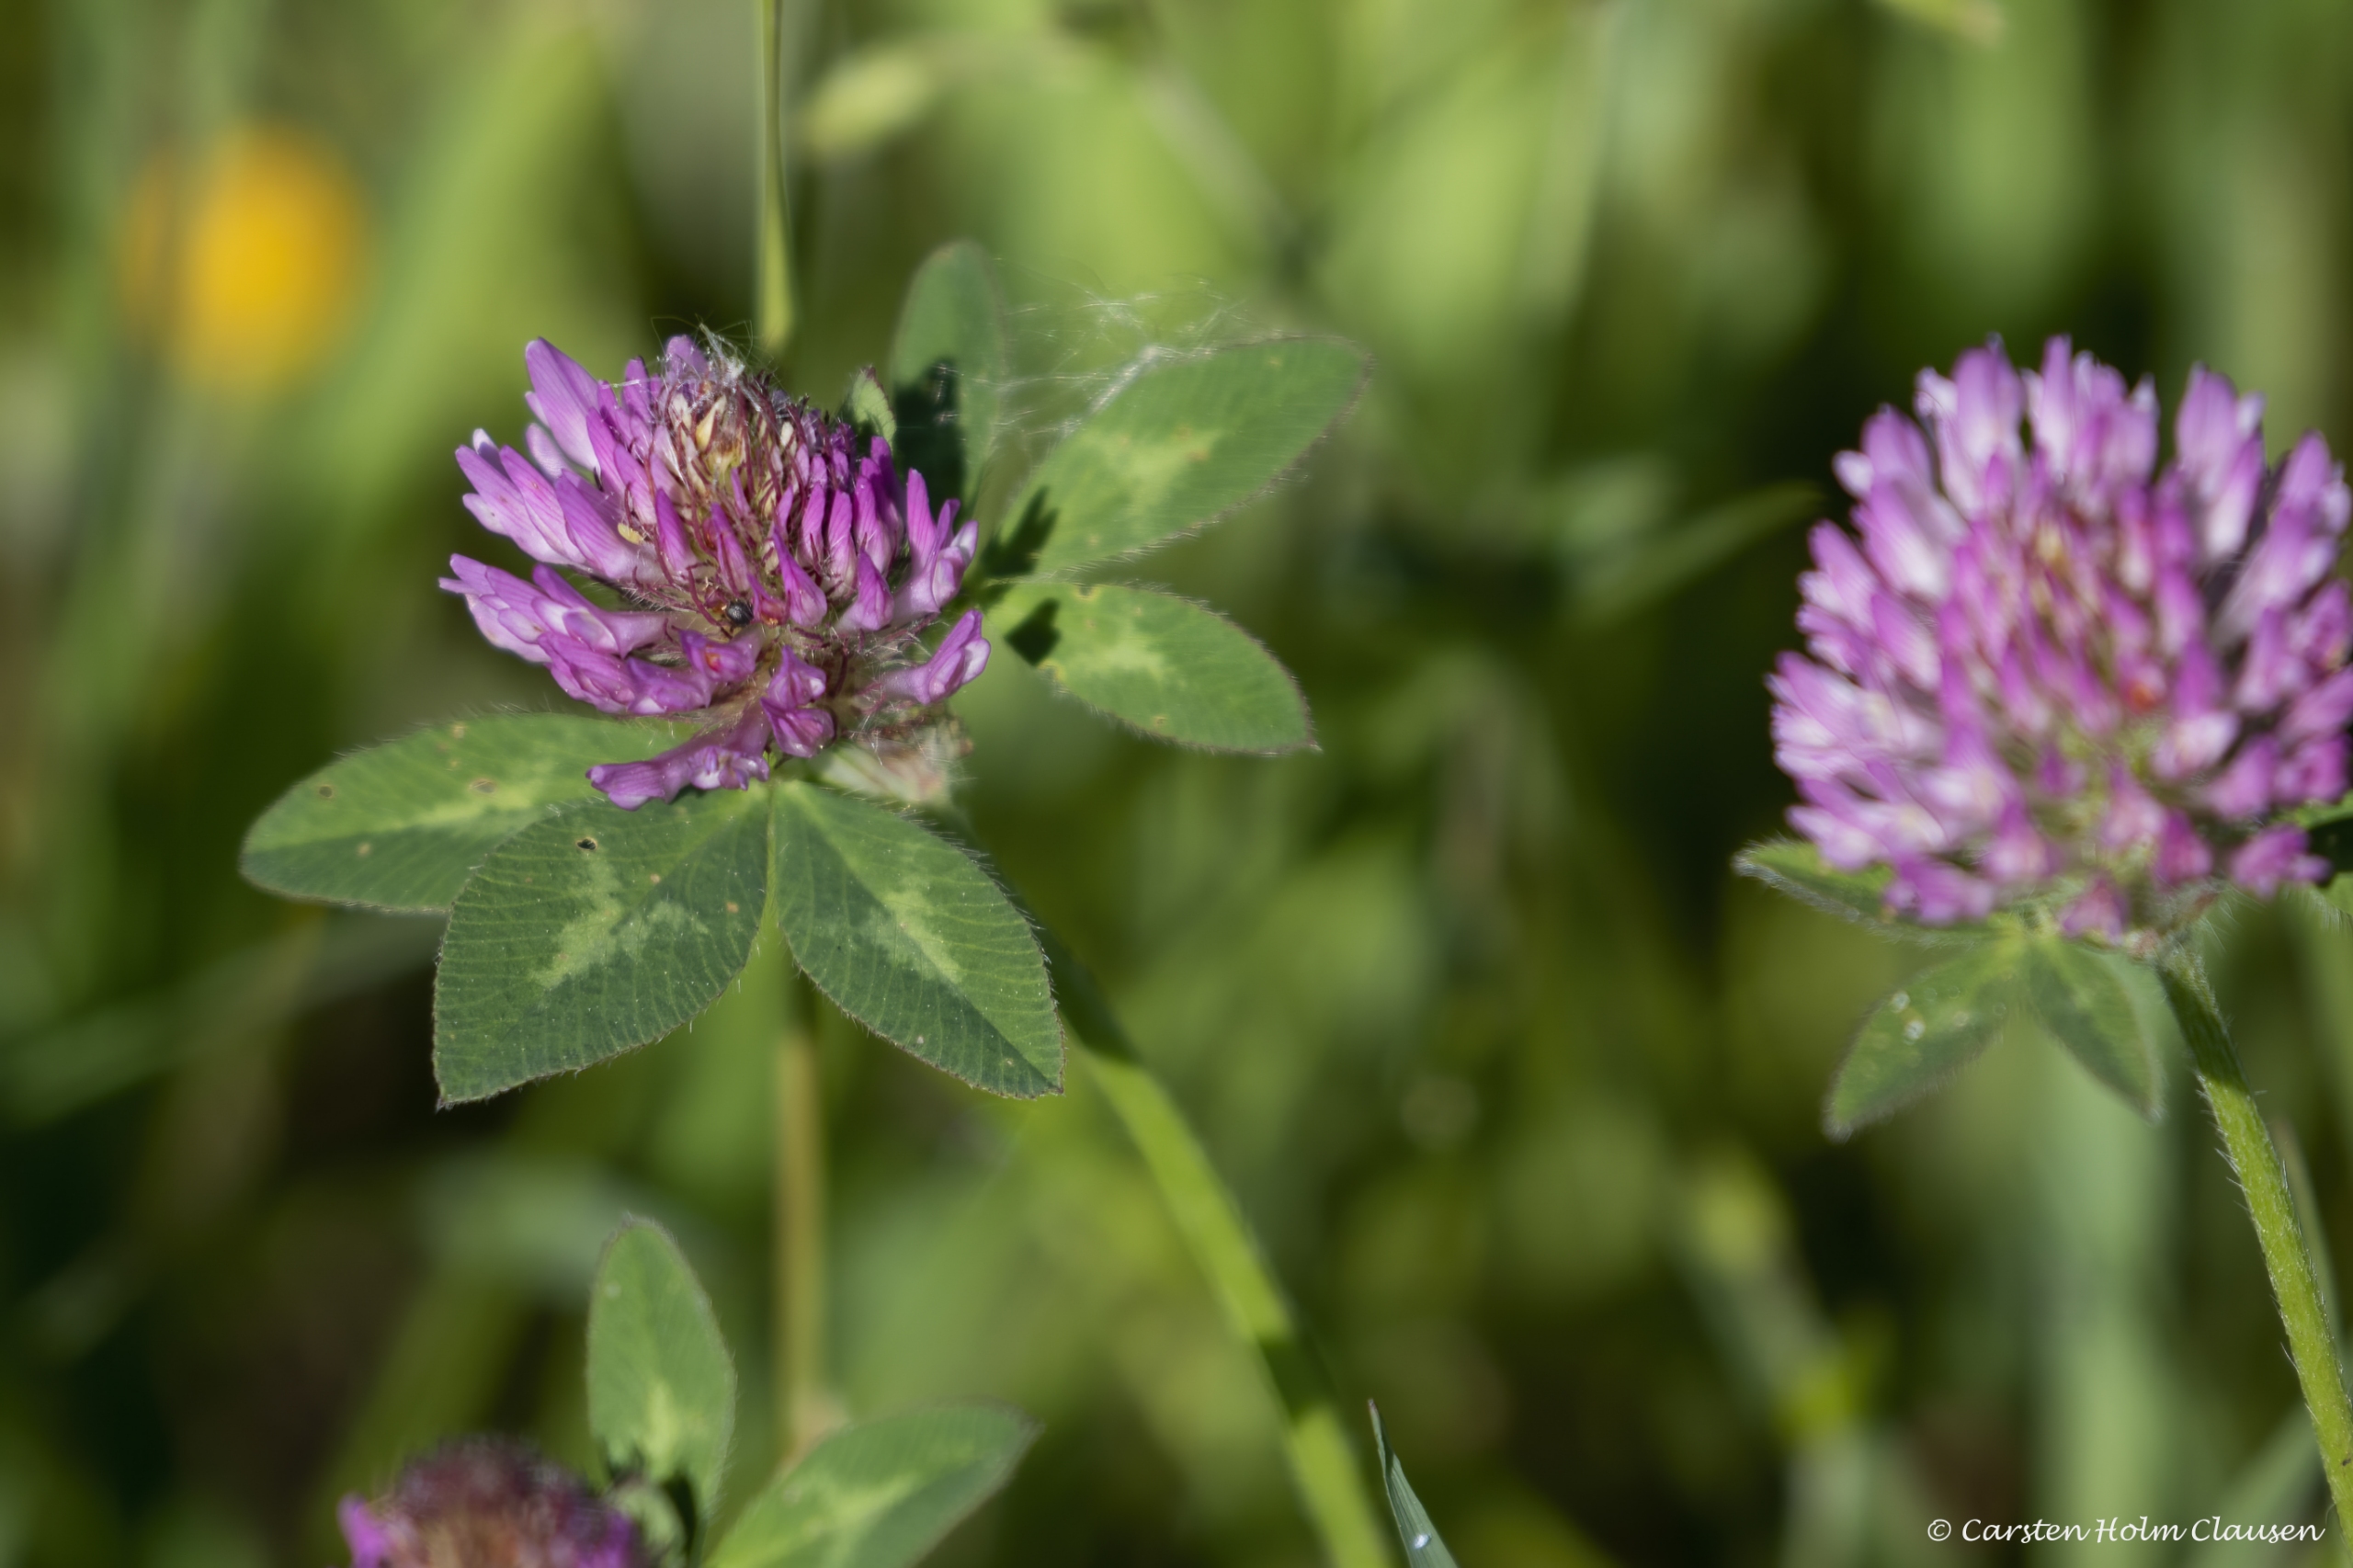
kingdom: Plantae
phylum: Tracheophyta
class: Magnoliopsida
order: Fabales
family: Fabaceae
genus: Trifolium
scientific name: Trifolium pratense
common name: Rød-kløver
